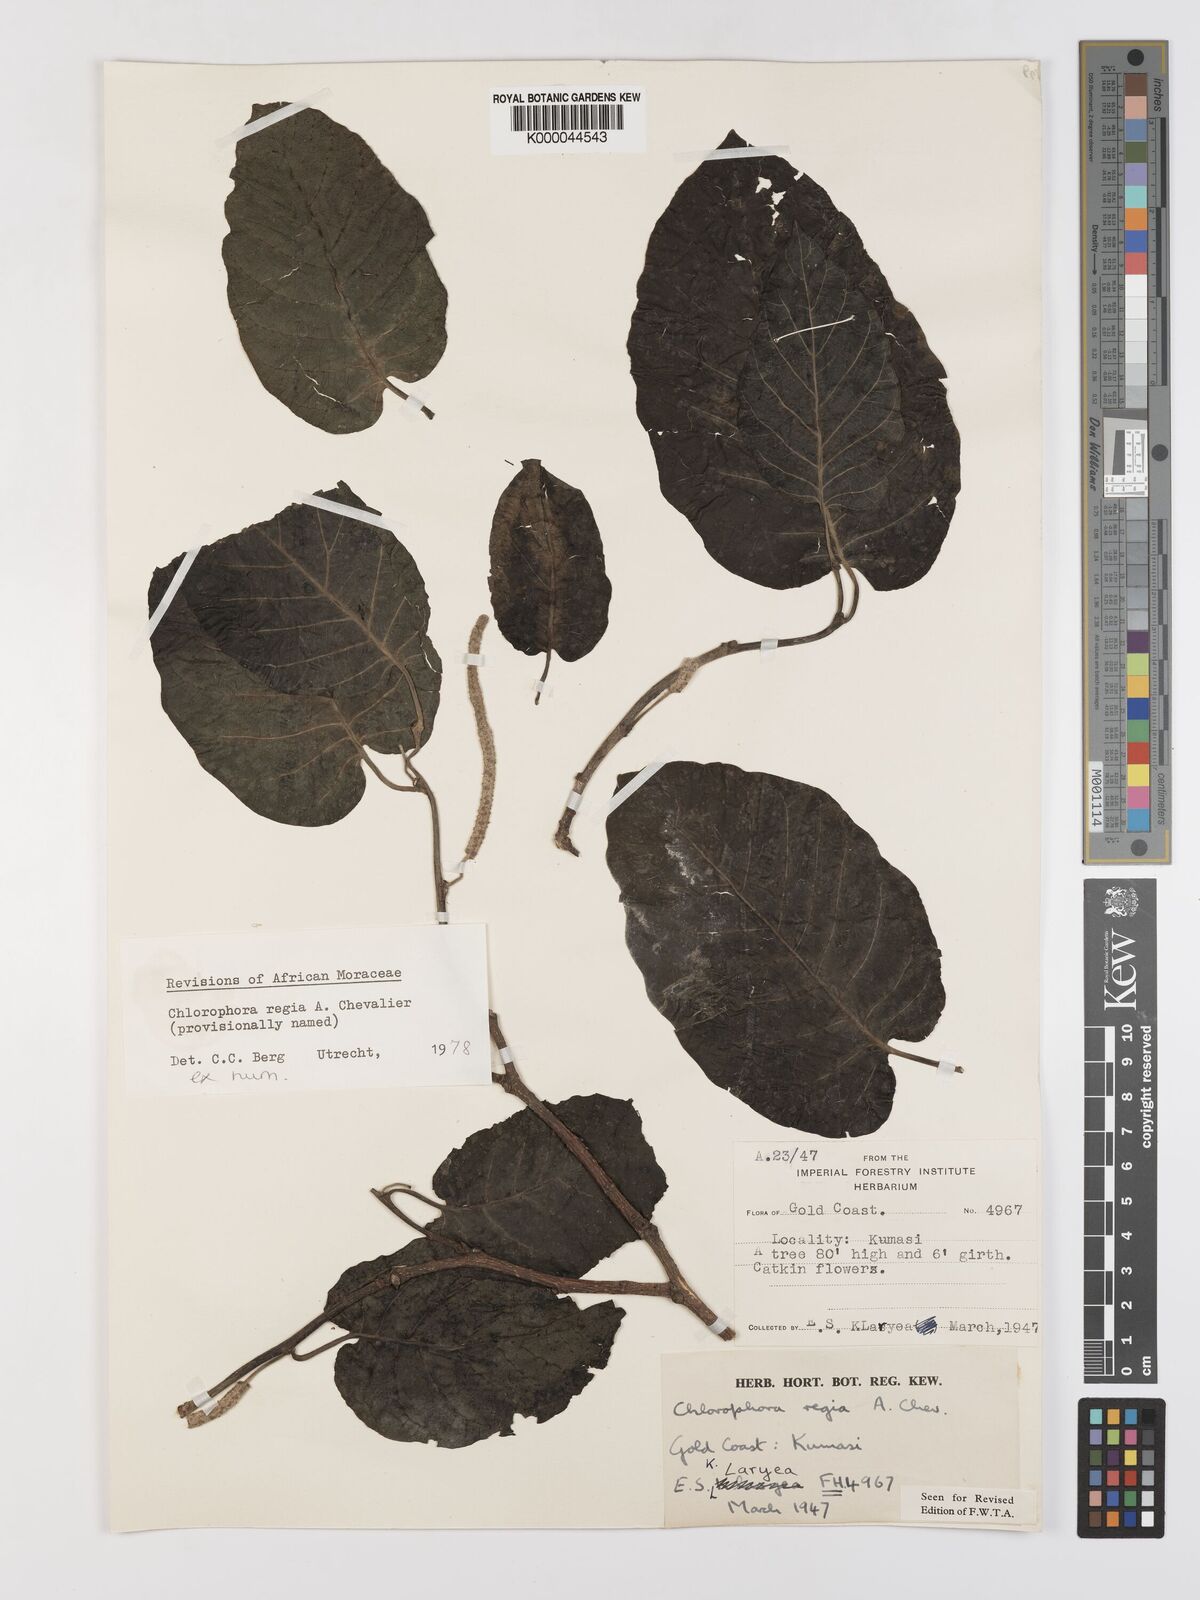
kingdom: Plantae
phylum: Tracheophyta
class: Magnoliopsida
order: Rosales
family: Moraceae
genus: Milicia
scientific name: Milicia regia
